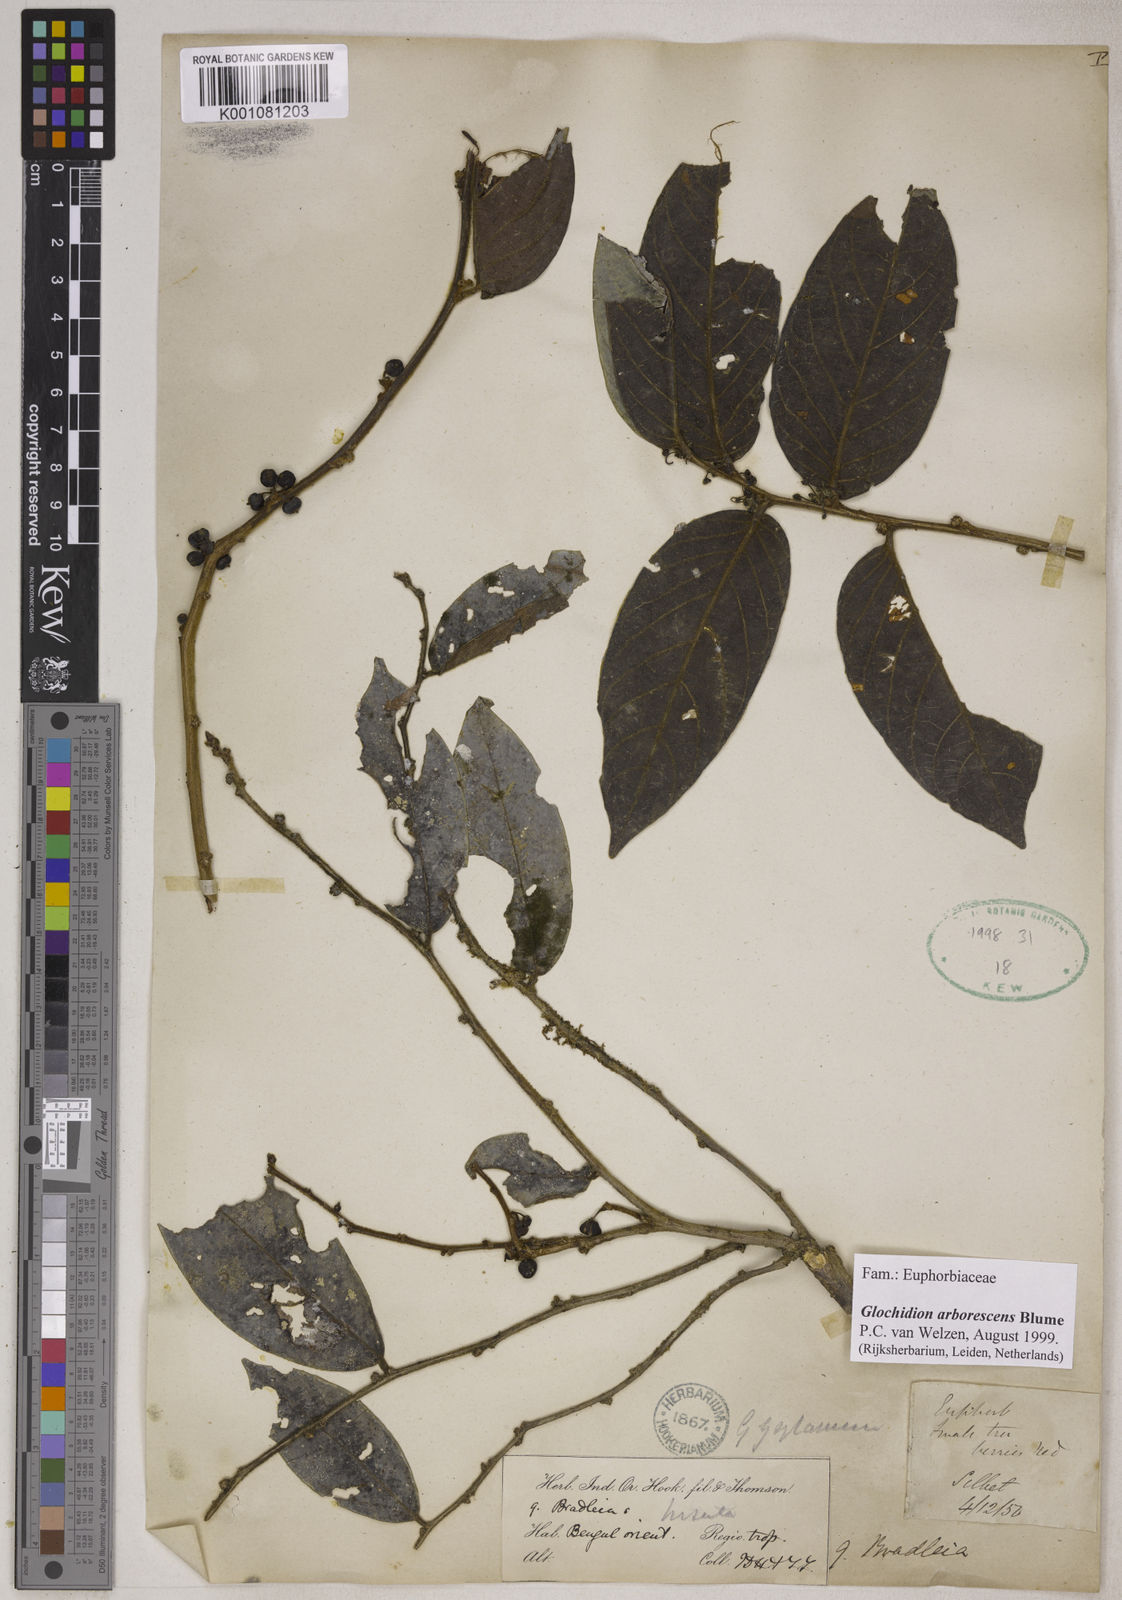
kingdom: Plantae
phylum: Tracheophyta
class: Magnoliopsida
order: Malpighiales
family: Phyllanthaceae
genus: Glochidion
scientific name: Glochidion zeylanicum
